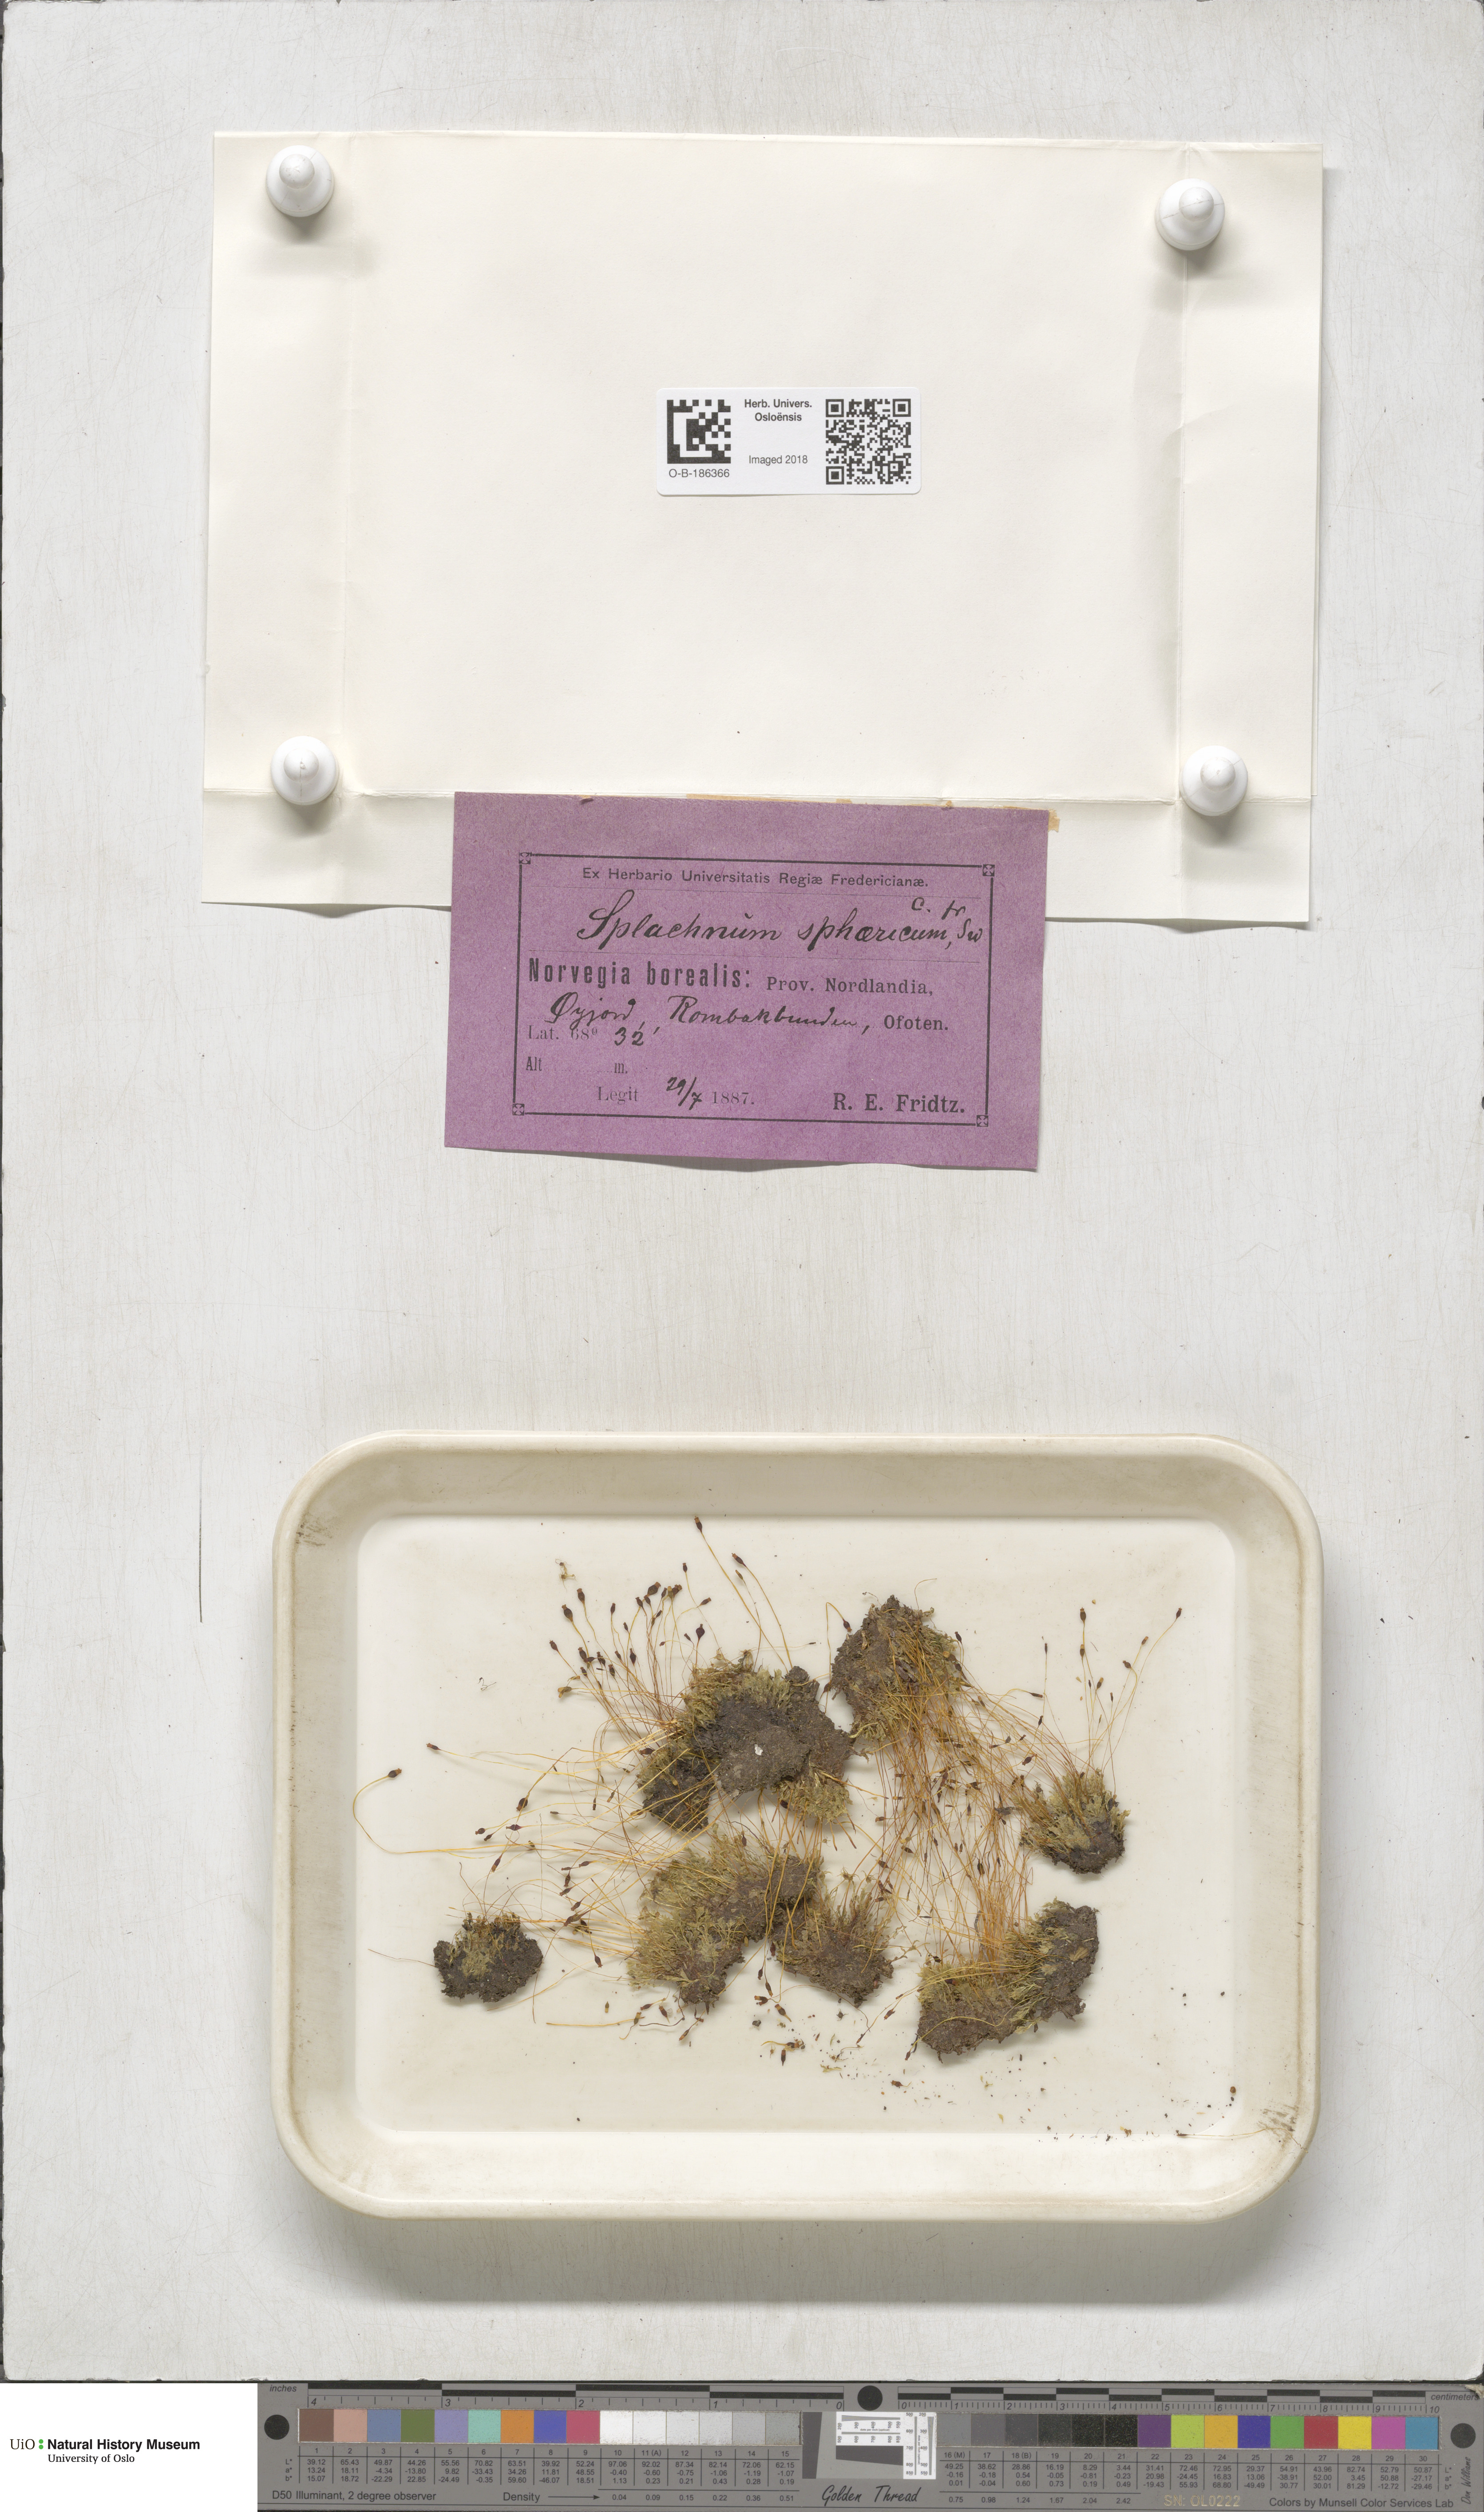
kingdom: Plantae
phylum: Bryophyta
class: Bryopsida
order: Splachnales
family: Splachnaceae
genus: Splachnum
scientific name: Splachnum sphaericum
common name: Round-fruited dung moss
